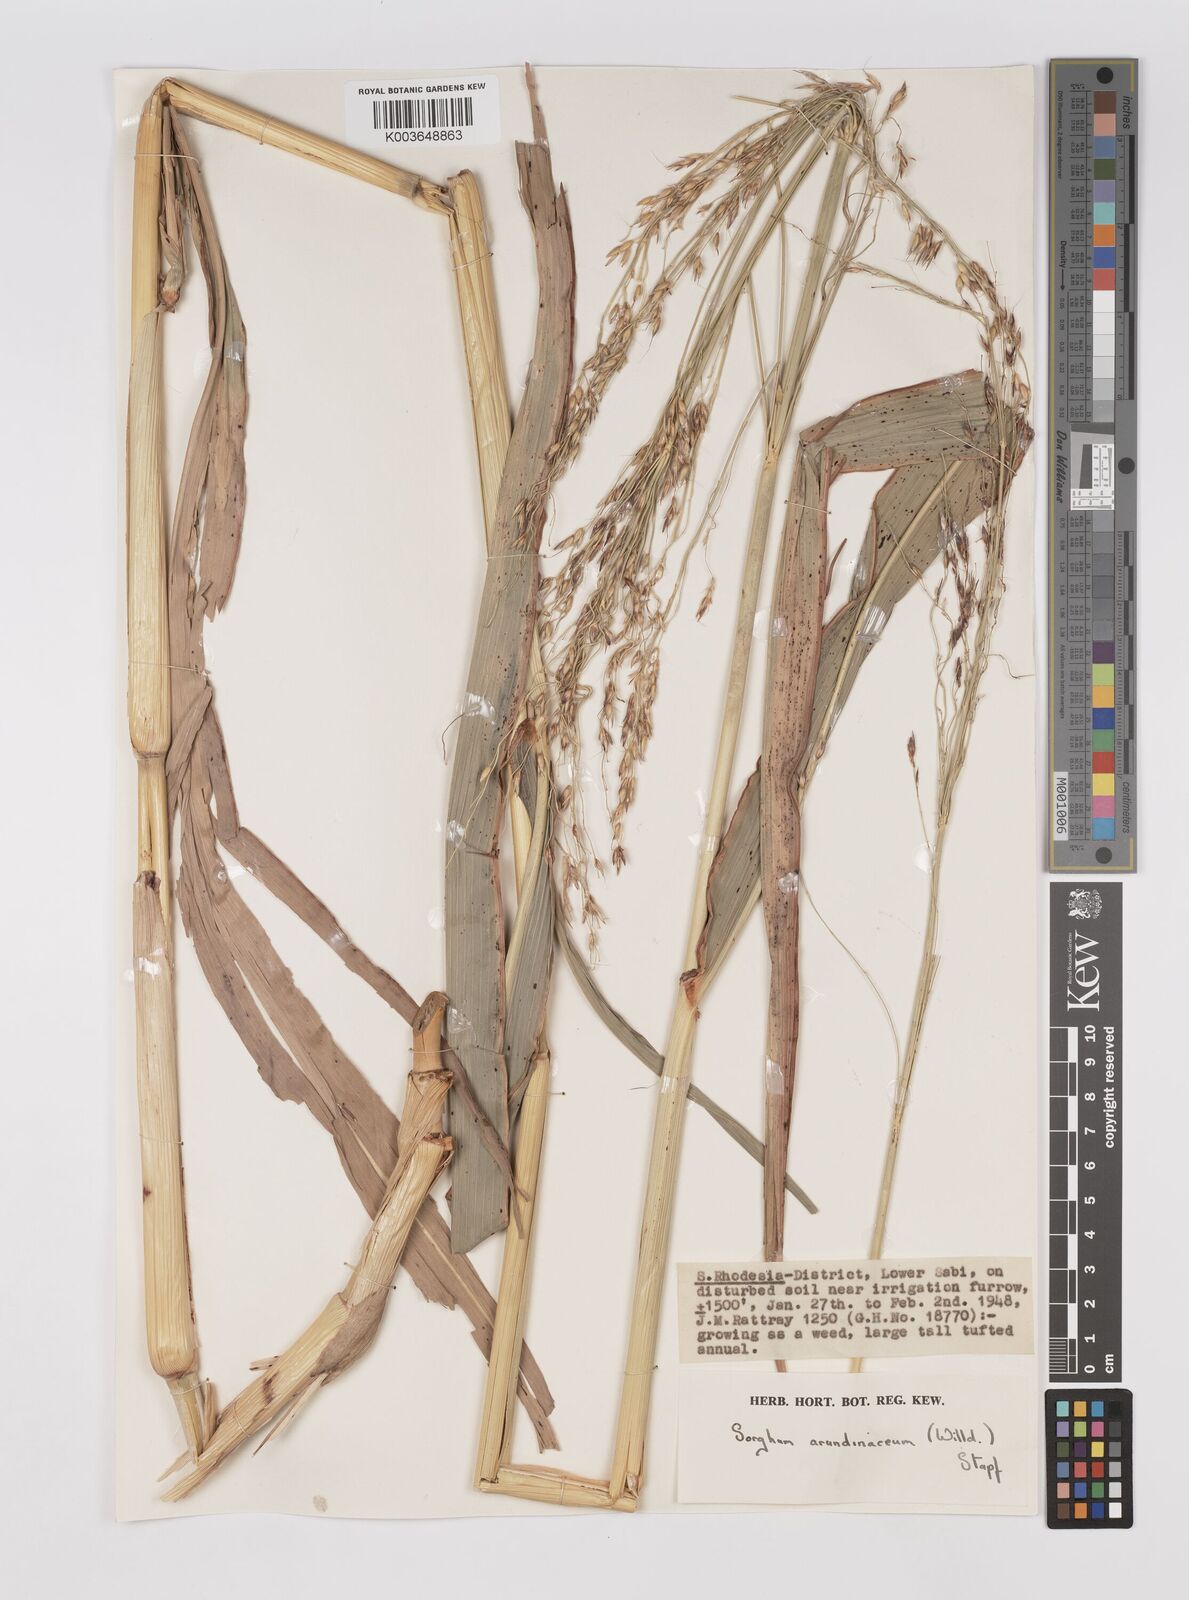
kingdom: Plantae
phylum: Tracheophyta
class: Liliopsida
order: Poales
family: Poaceae
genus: Sorghum
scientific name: Sorghum arundinaceum
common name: Sorghum
